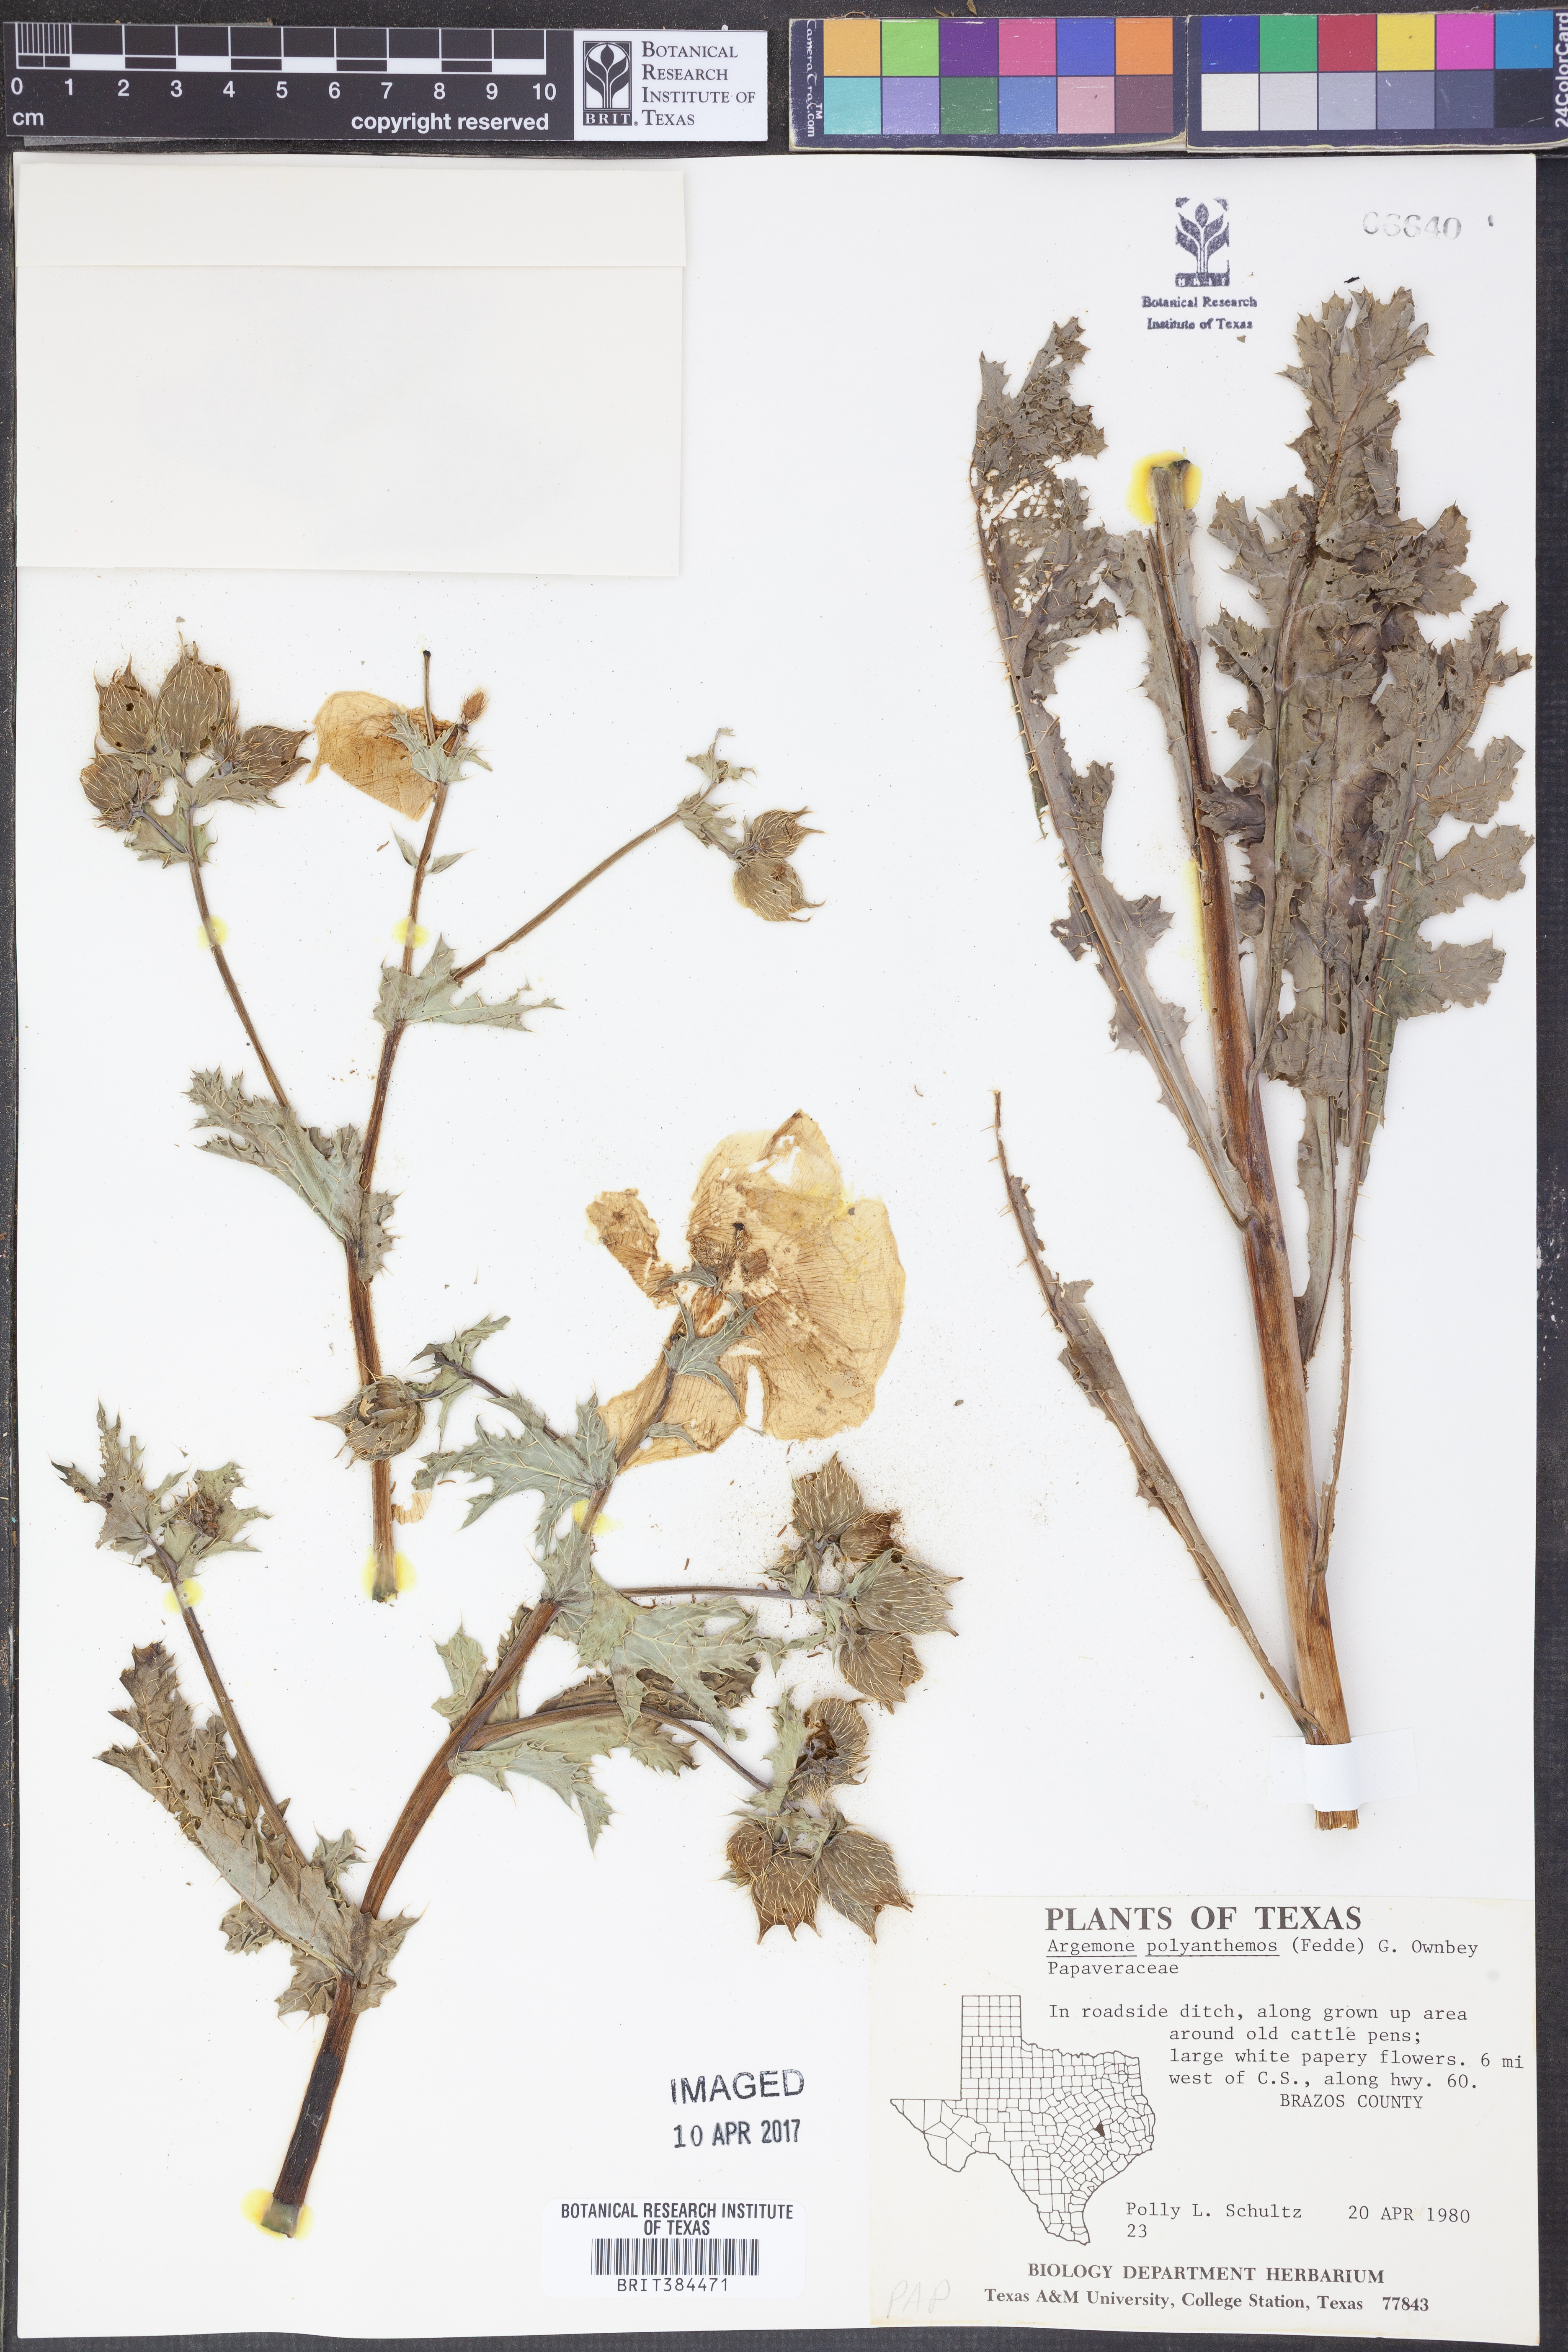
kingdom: Plantae
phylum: Tracheophyta
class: Magnoliopsida
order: Ranunculales
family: Papaveraceae
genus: Argemone
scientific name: Argemone polyanthemos
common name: Plains prickly-poppy
